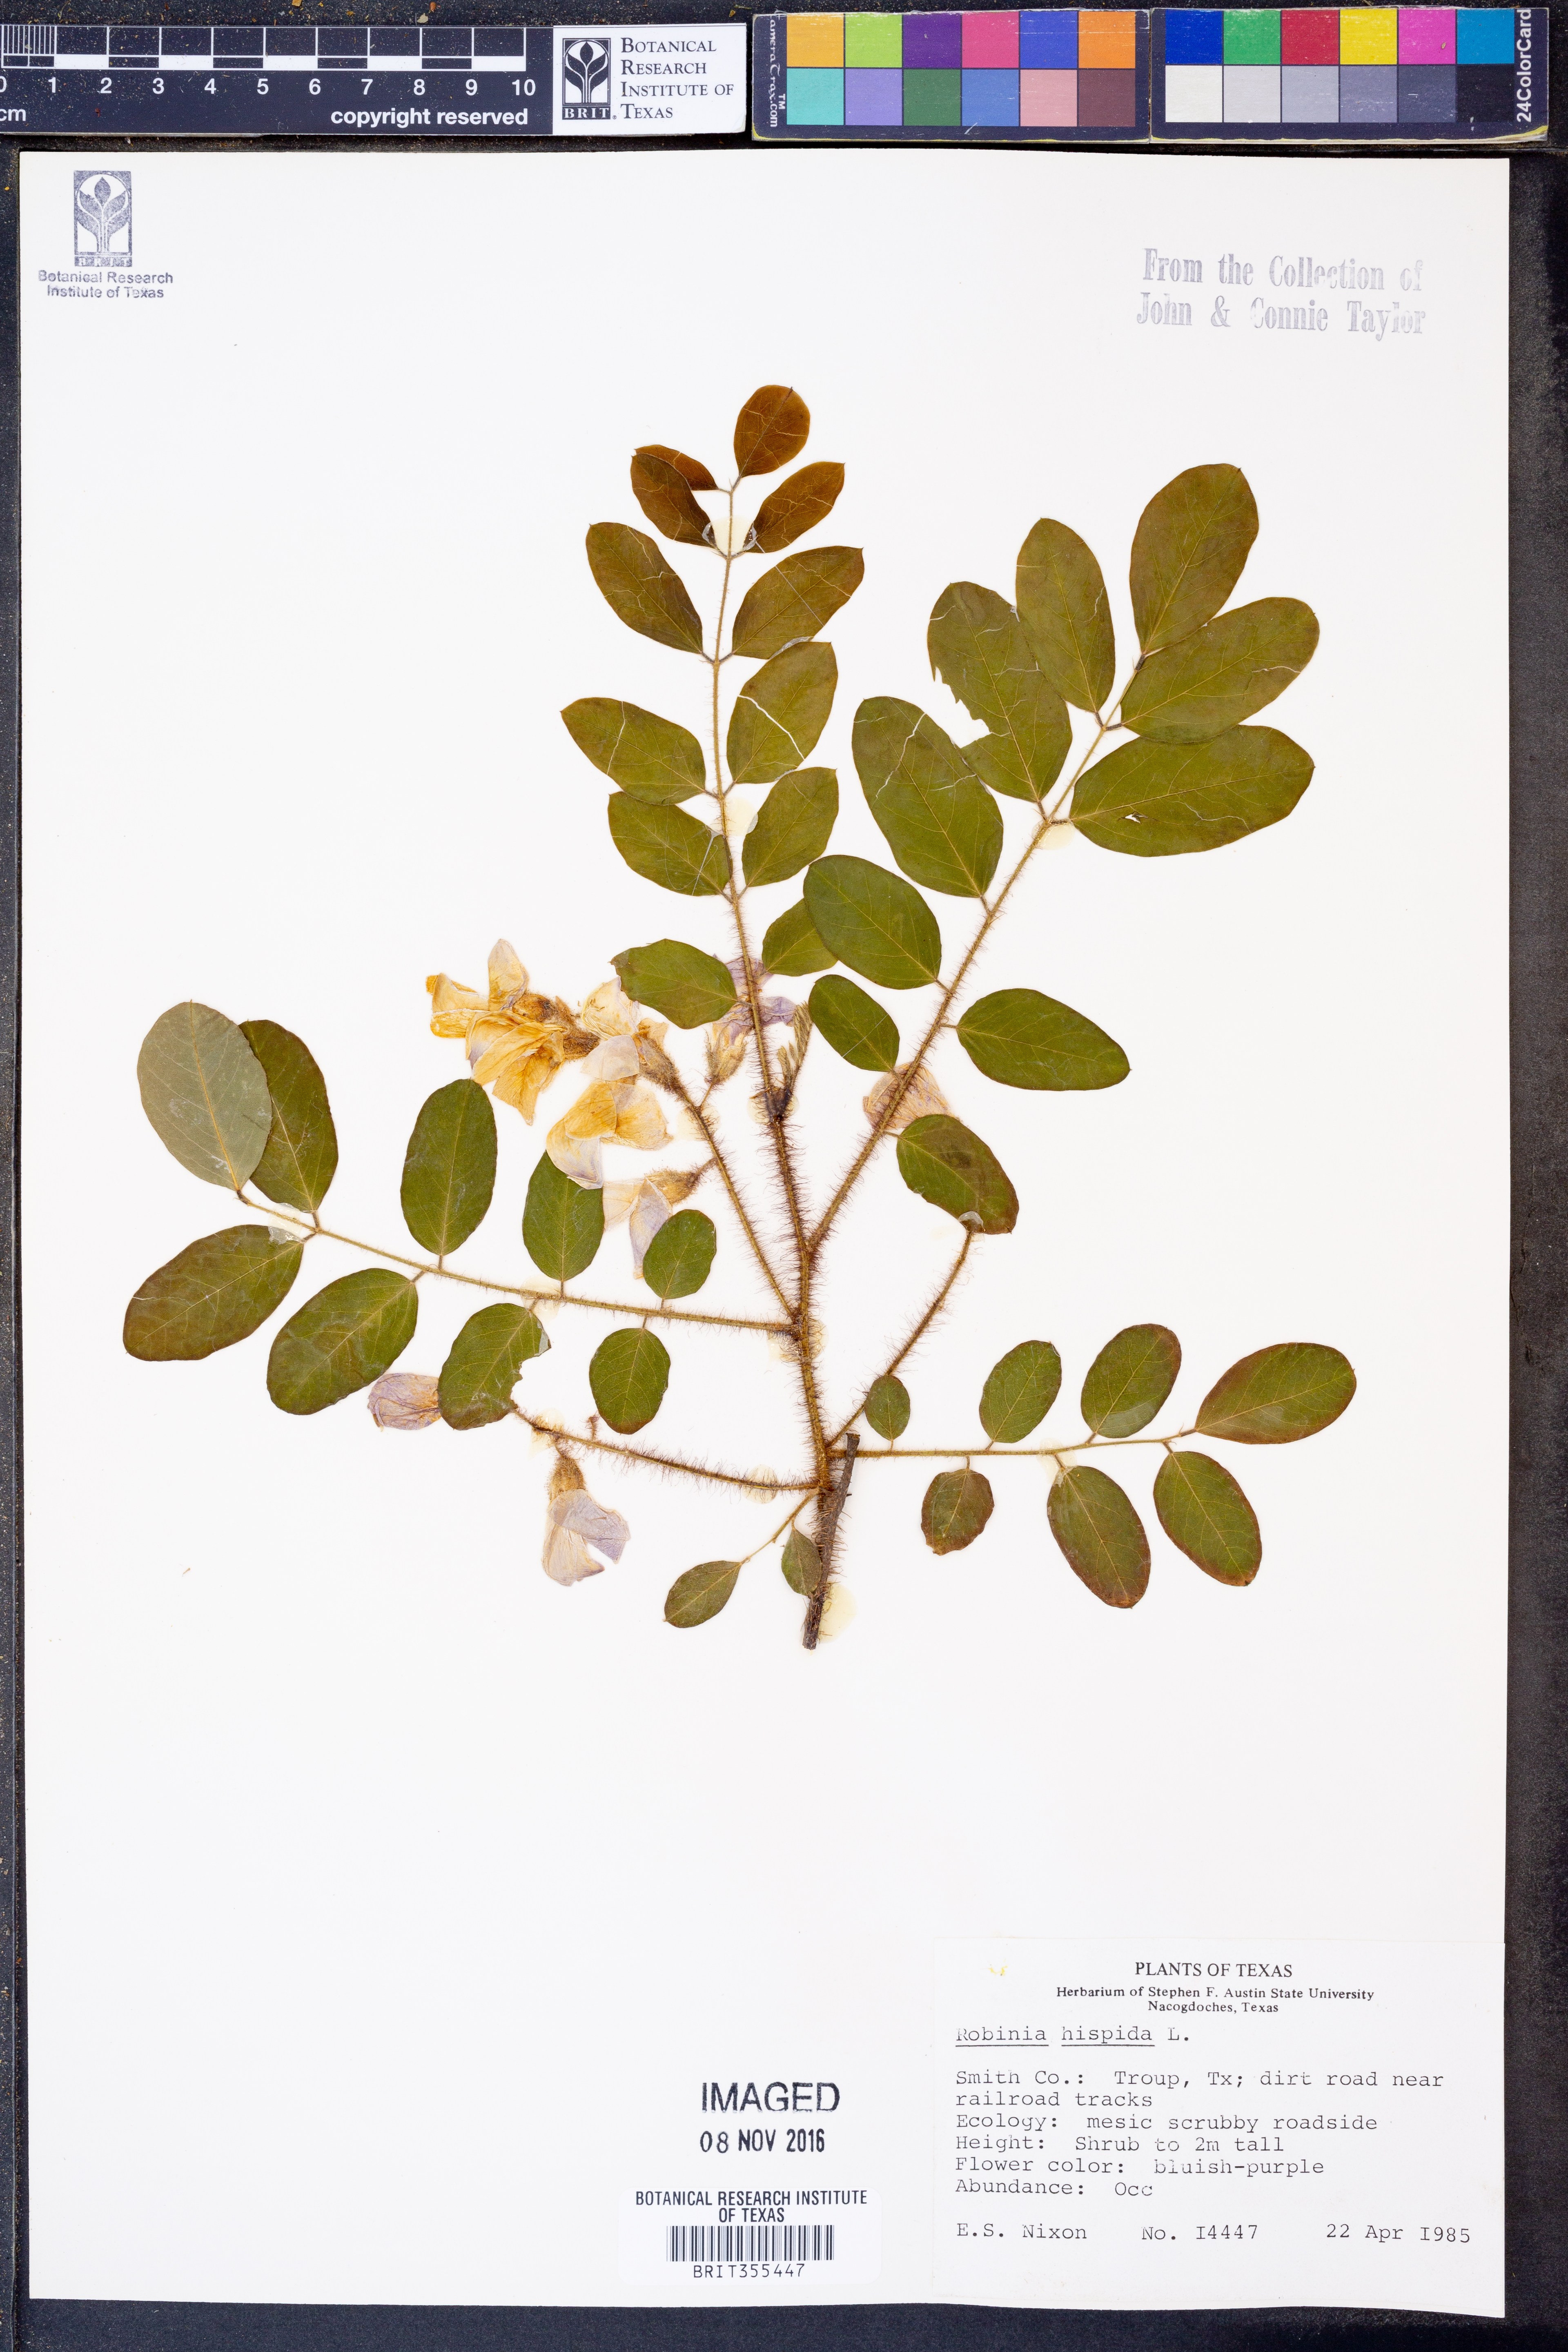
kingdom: Plantae
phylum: Tracheophyta
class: Magnoliopsida
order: Fabales
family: Fabaceae
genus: Robinia
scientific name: Robinia hispida
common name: Bristly locust
